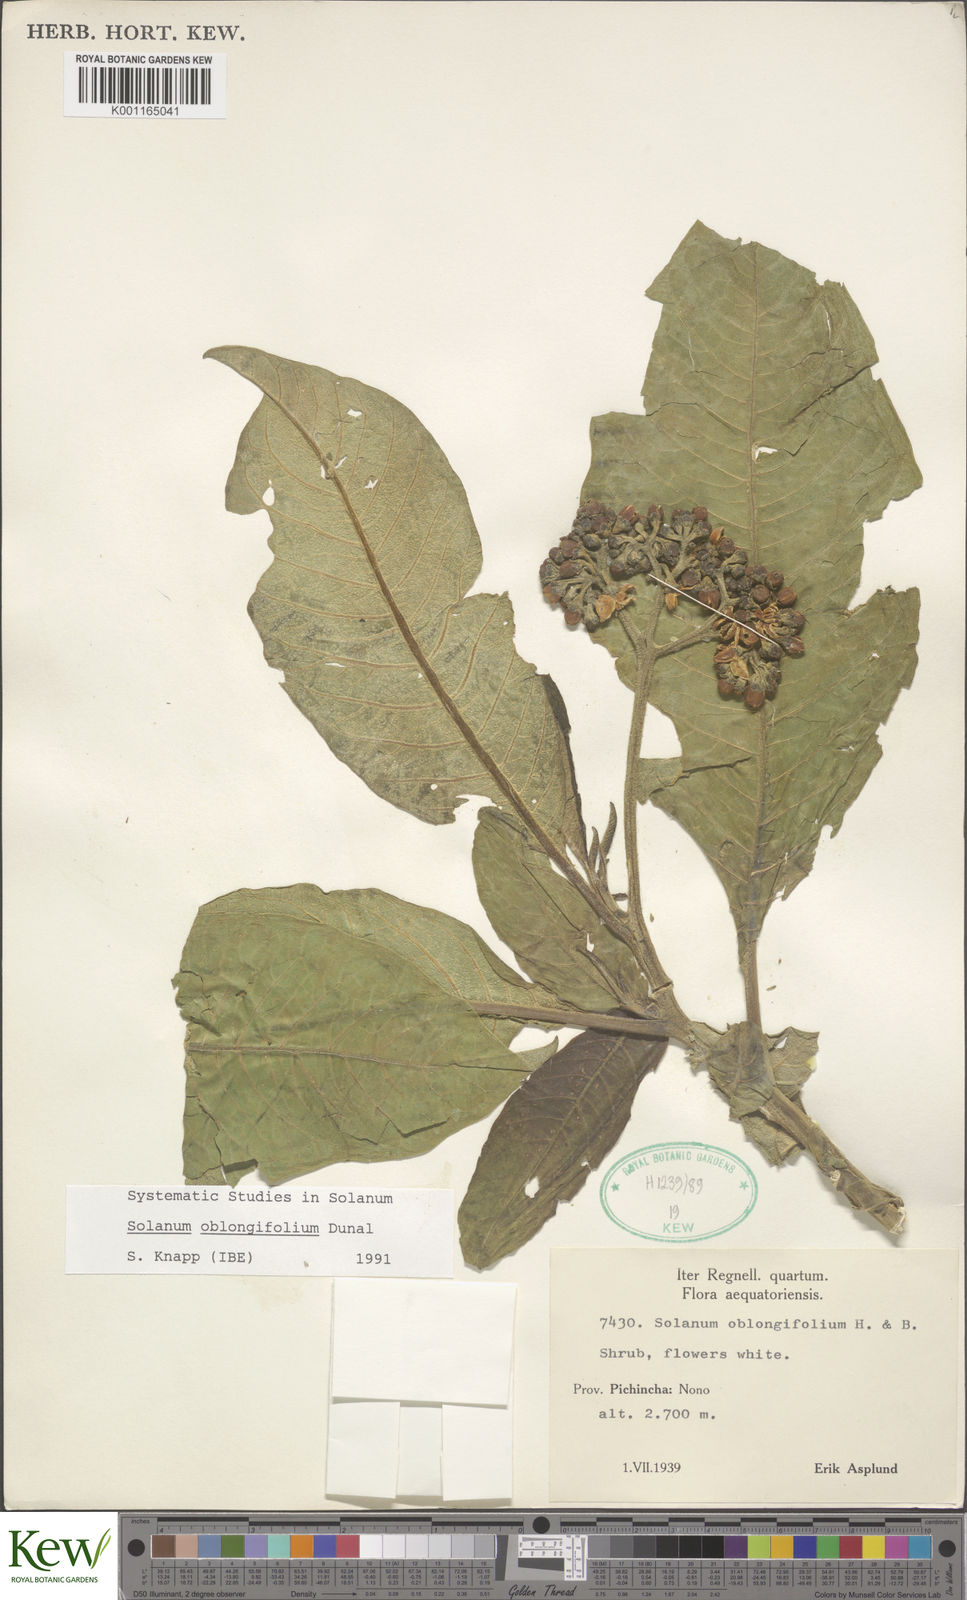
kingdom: Plantae
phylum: Tracheophyta
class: Magnoliopsida
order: Solanales
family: Solanaceae
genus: Solanum
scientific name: Solanum oblongifolium
